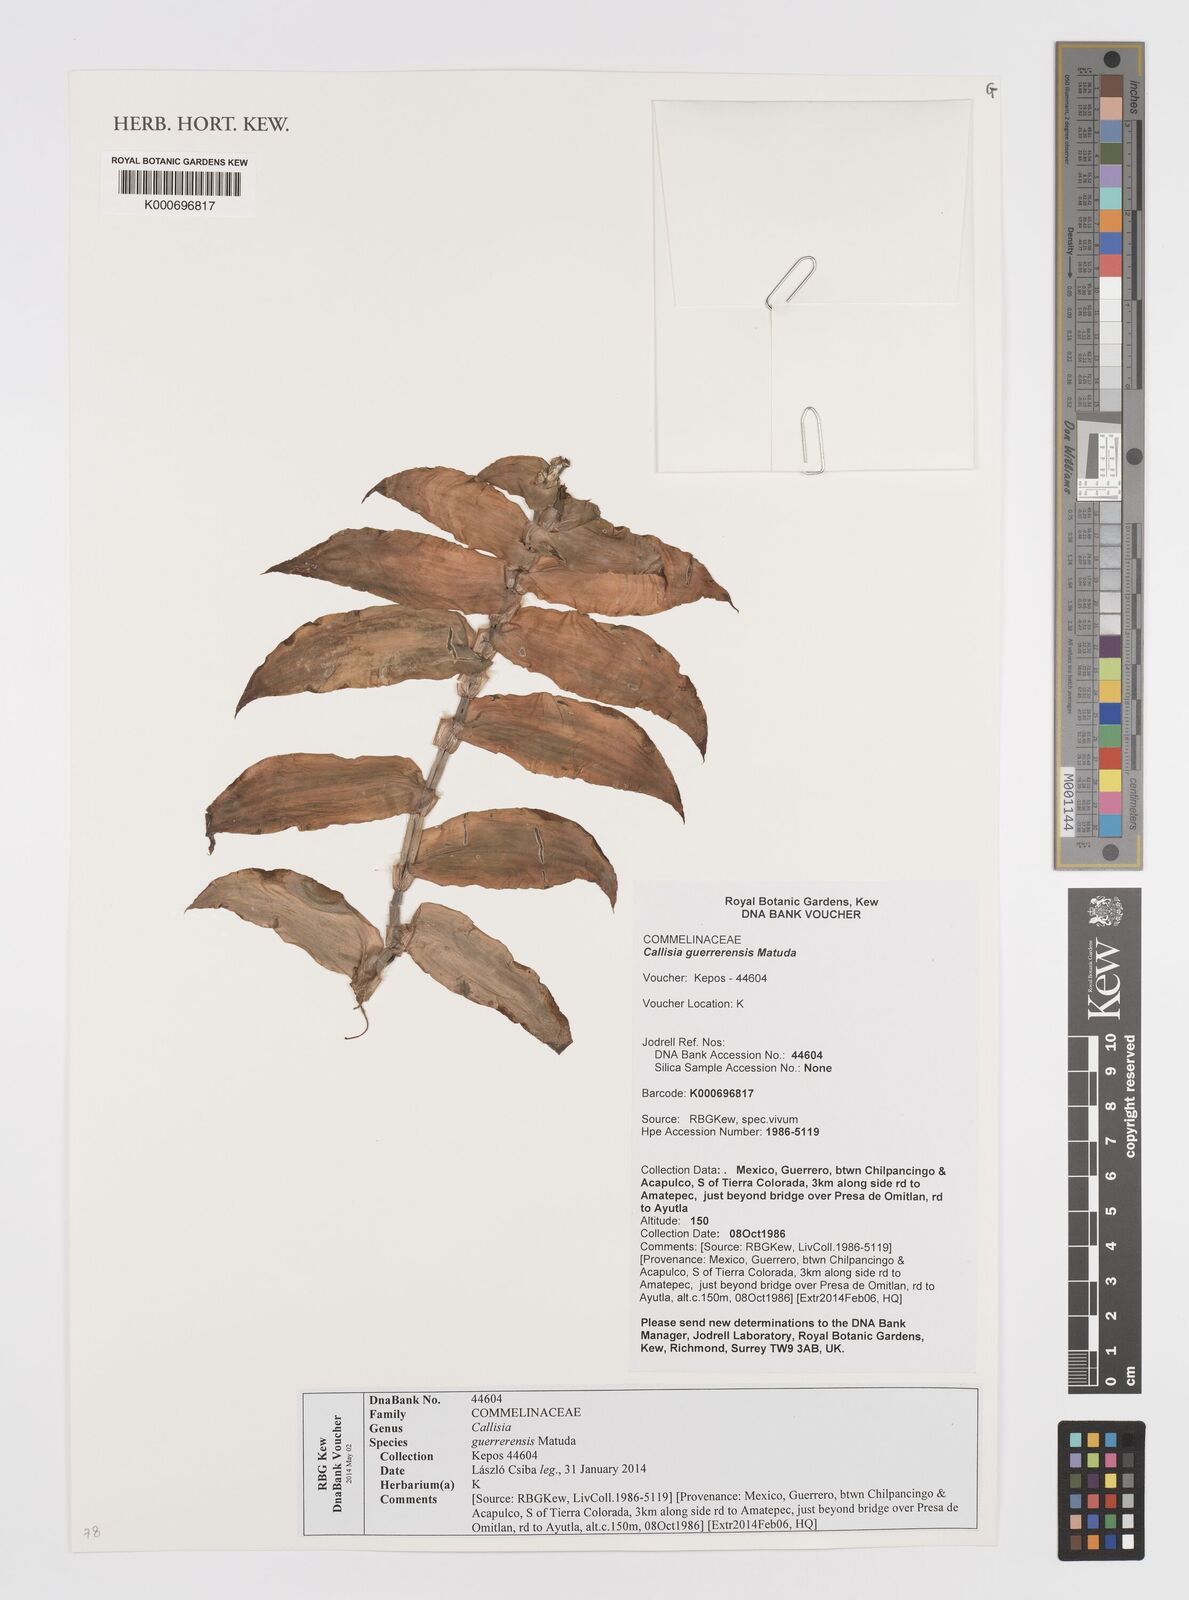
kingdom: Plantae
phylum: Tracheophyta
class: Liliopsida
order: Commelinales
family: Commelinaceae
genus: Callisia
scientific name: Callisia
